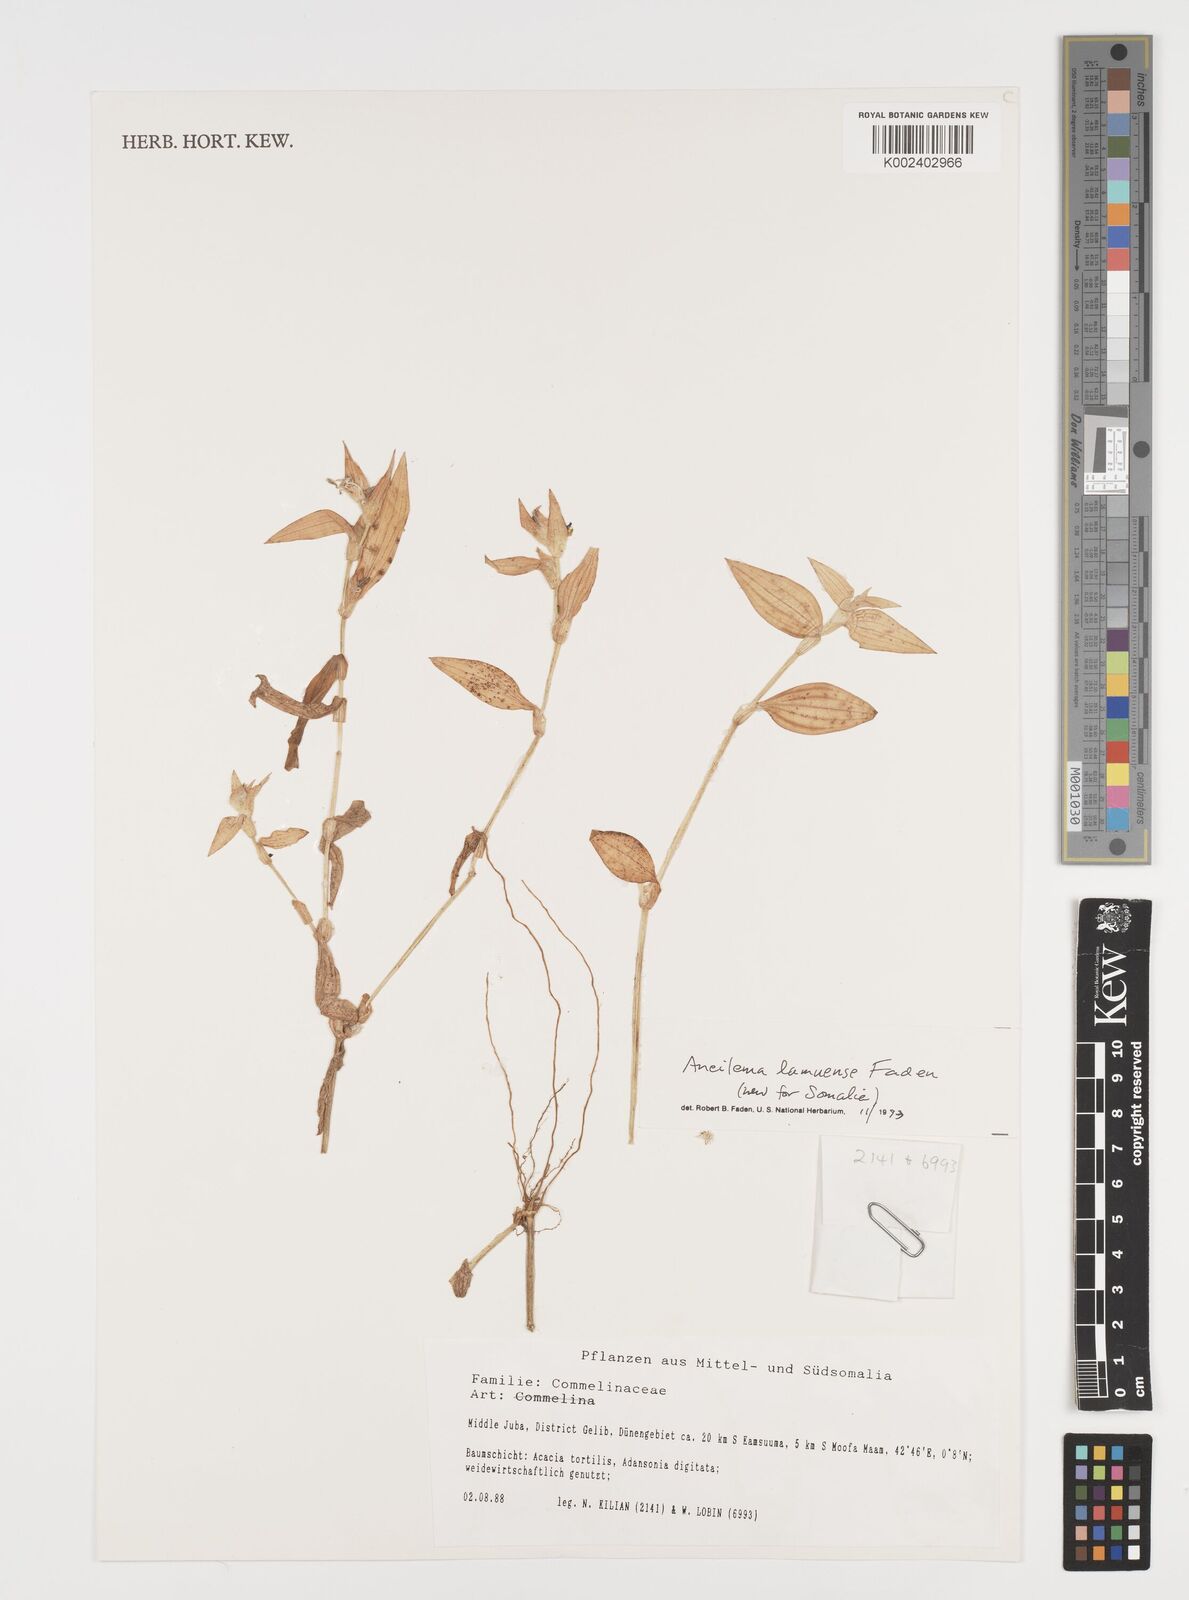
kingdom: Plantae
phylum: Tracheophyta
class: Liliopsida
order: Commelinales
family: Commelinaceae
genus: Aneilema
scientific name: Aneilema lamuense
